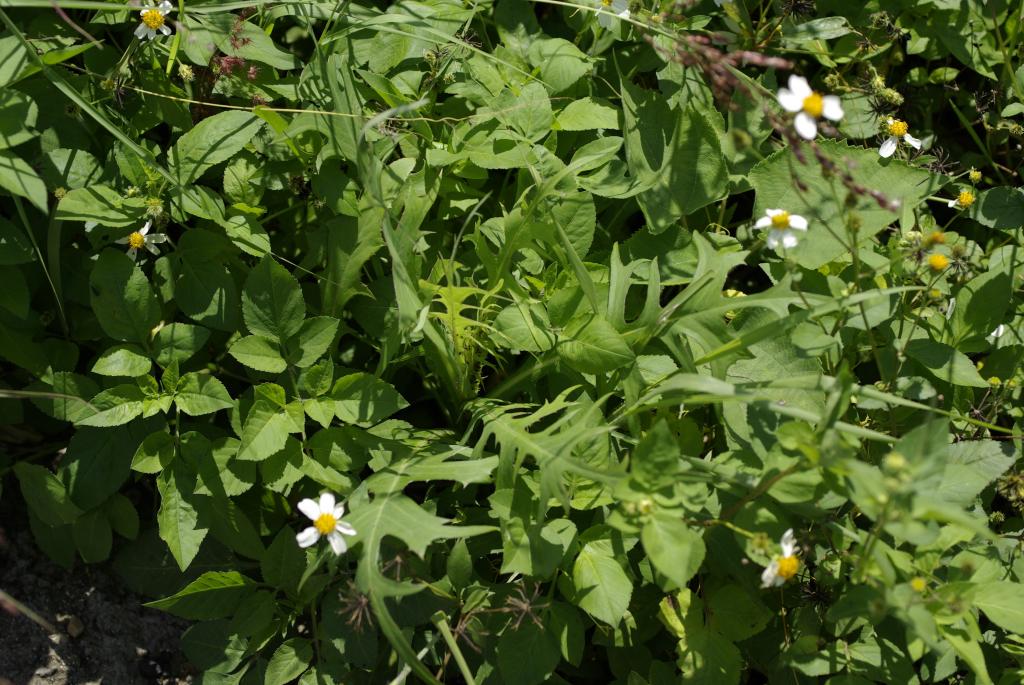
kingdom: Plantae
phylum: Tracheophyta
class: Magnoliopsida
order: Asterales
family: Asteraceae
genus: Lactuca
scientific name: Lactuca indica
